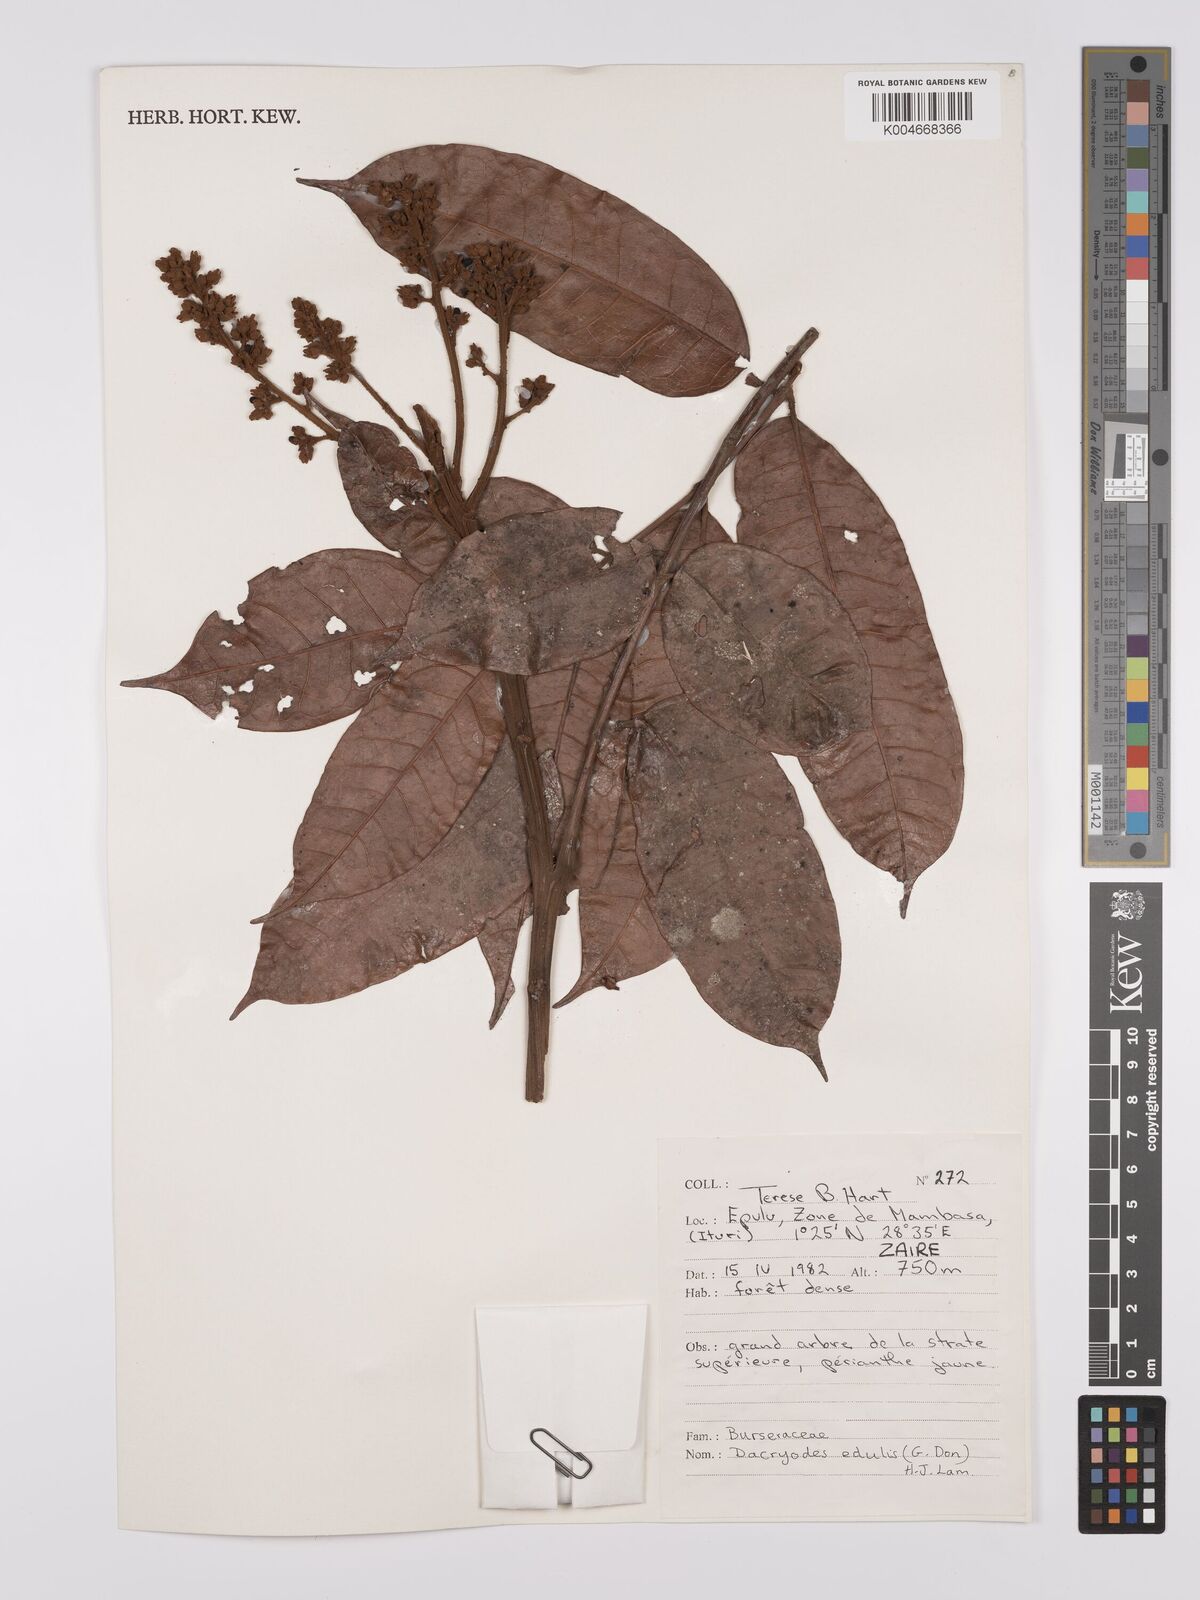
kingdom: Plantae
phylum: Tracheophyta
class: Magnoliopsida
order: Sapindales
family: Burseraceae
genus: Pachylobus
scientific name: Pachylobus edulis
